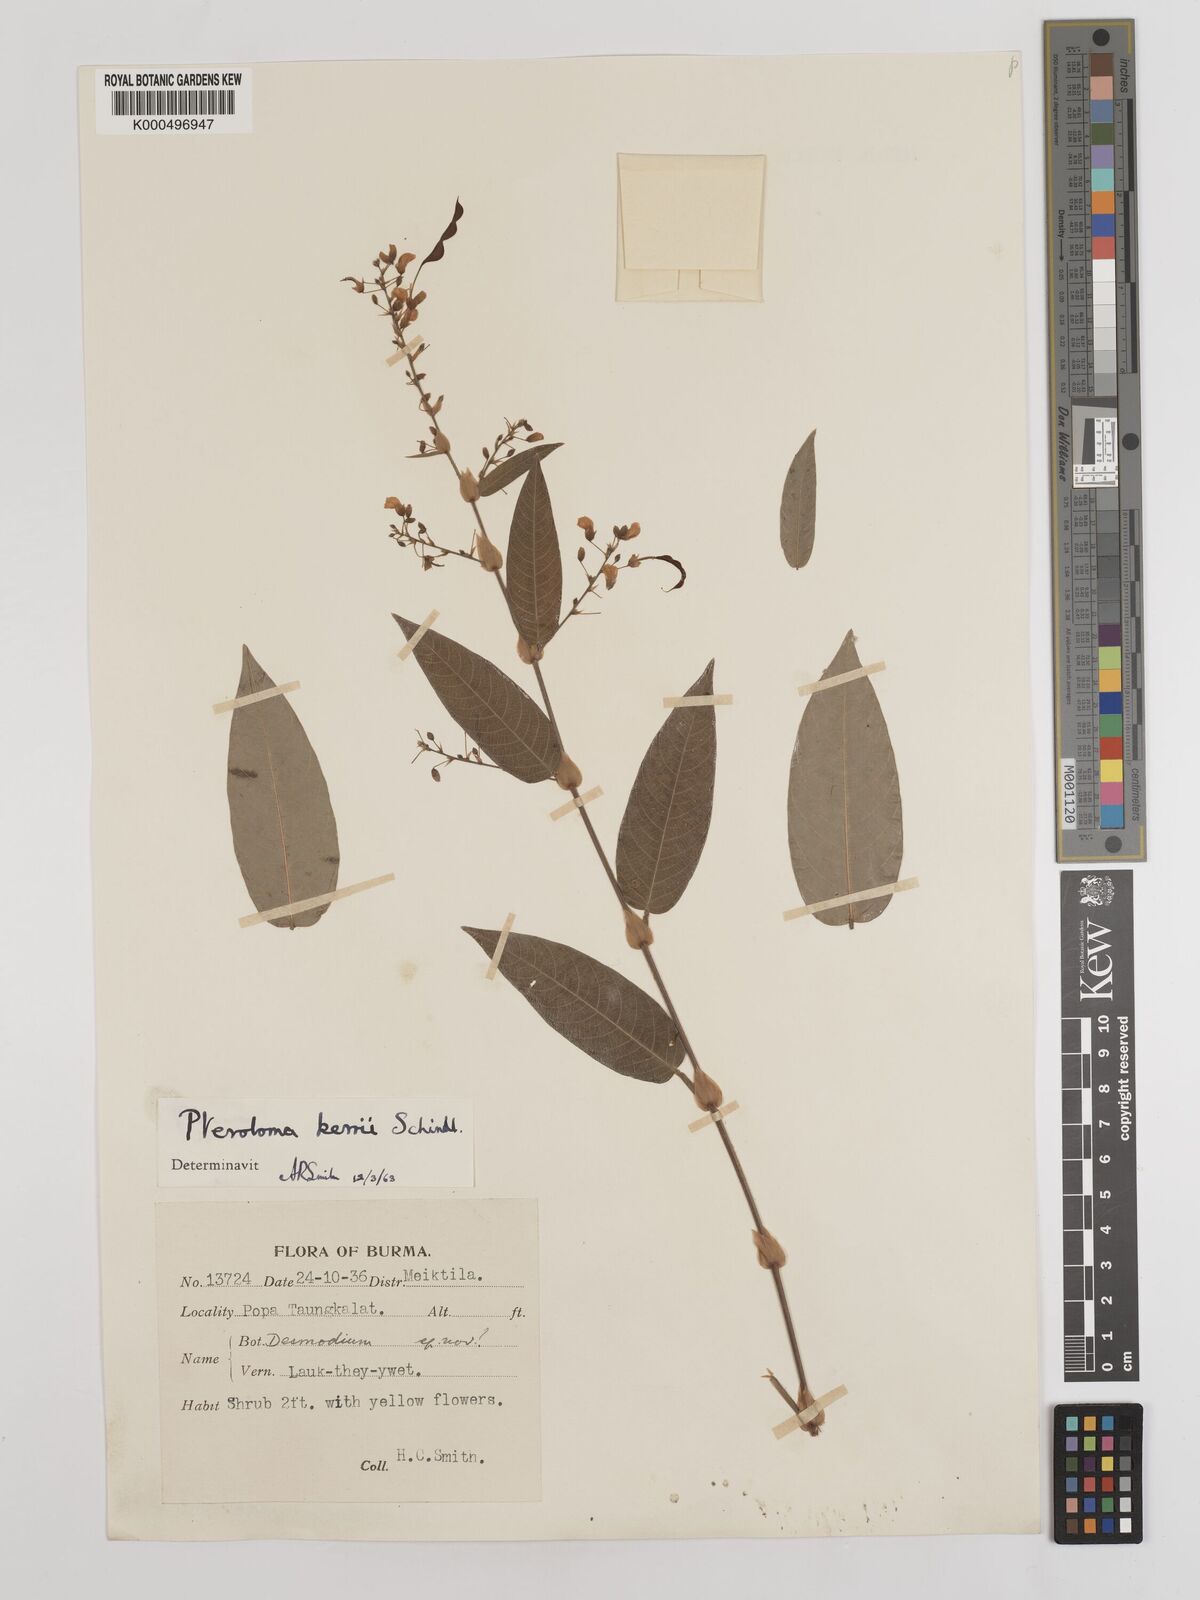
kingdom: Plantae
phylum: Tracheophyta
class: Magnoliopsida
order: Fabales
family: Fabaceae
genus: Tadehagi
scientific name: Tadehagi rodgeri
